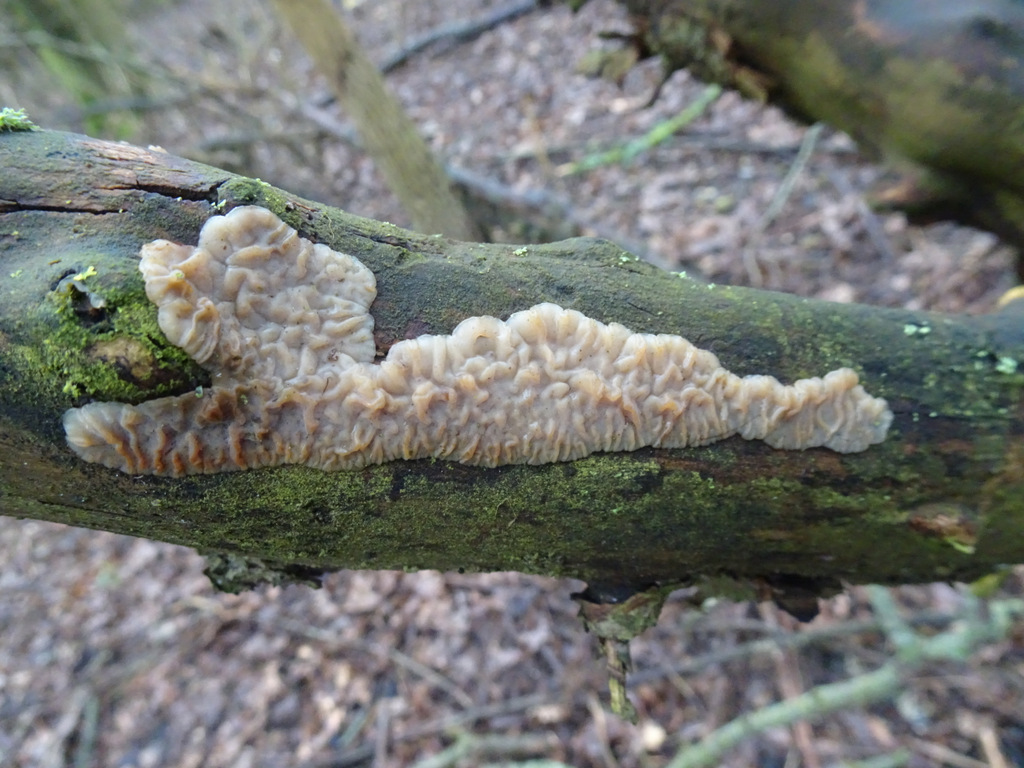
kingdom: Fungi
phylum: Basidiomycota
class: Agaricomycetes
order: Auriculariales
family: Auriculariaceae
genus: Exidia
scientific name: Exidia thuretiana
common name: hvidlig bævretop
